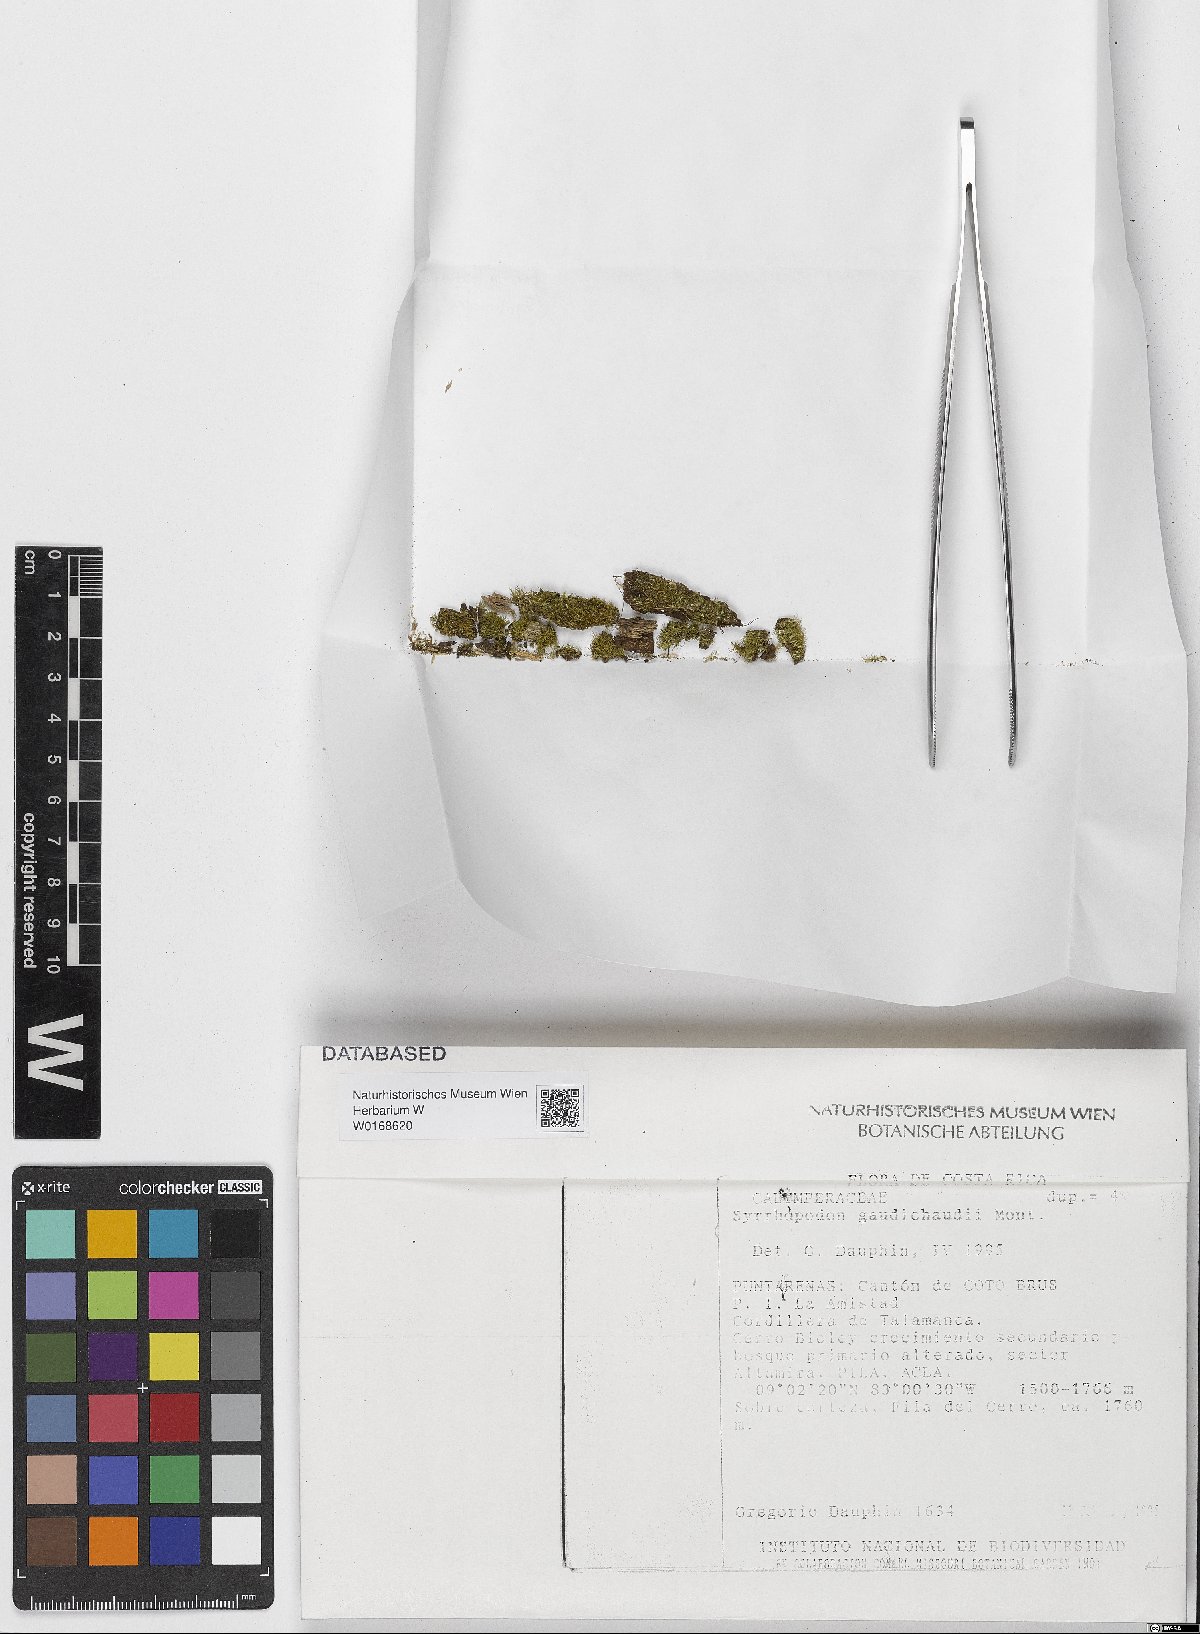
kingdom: Plantae
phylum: Bryophyta
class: Bryopsida
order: Dicranales
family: Calymperaceae
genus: Syrrhopodon
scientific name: Syrrhopodon gaudichaudii
